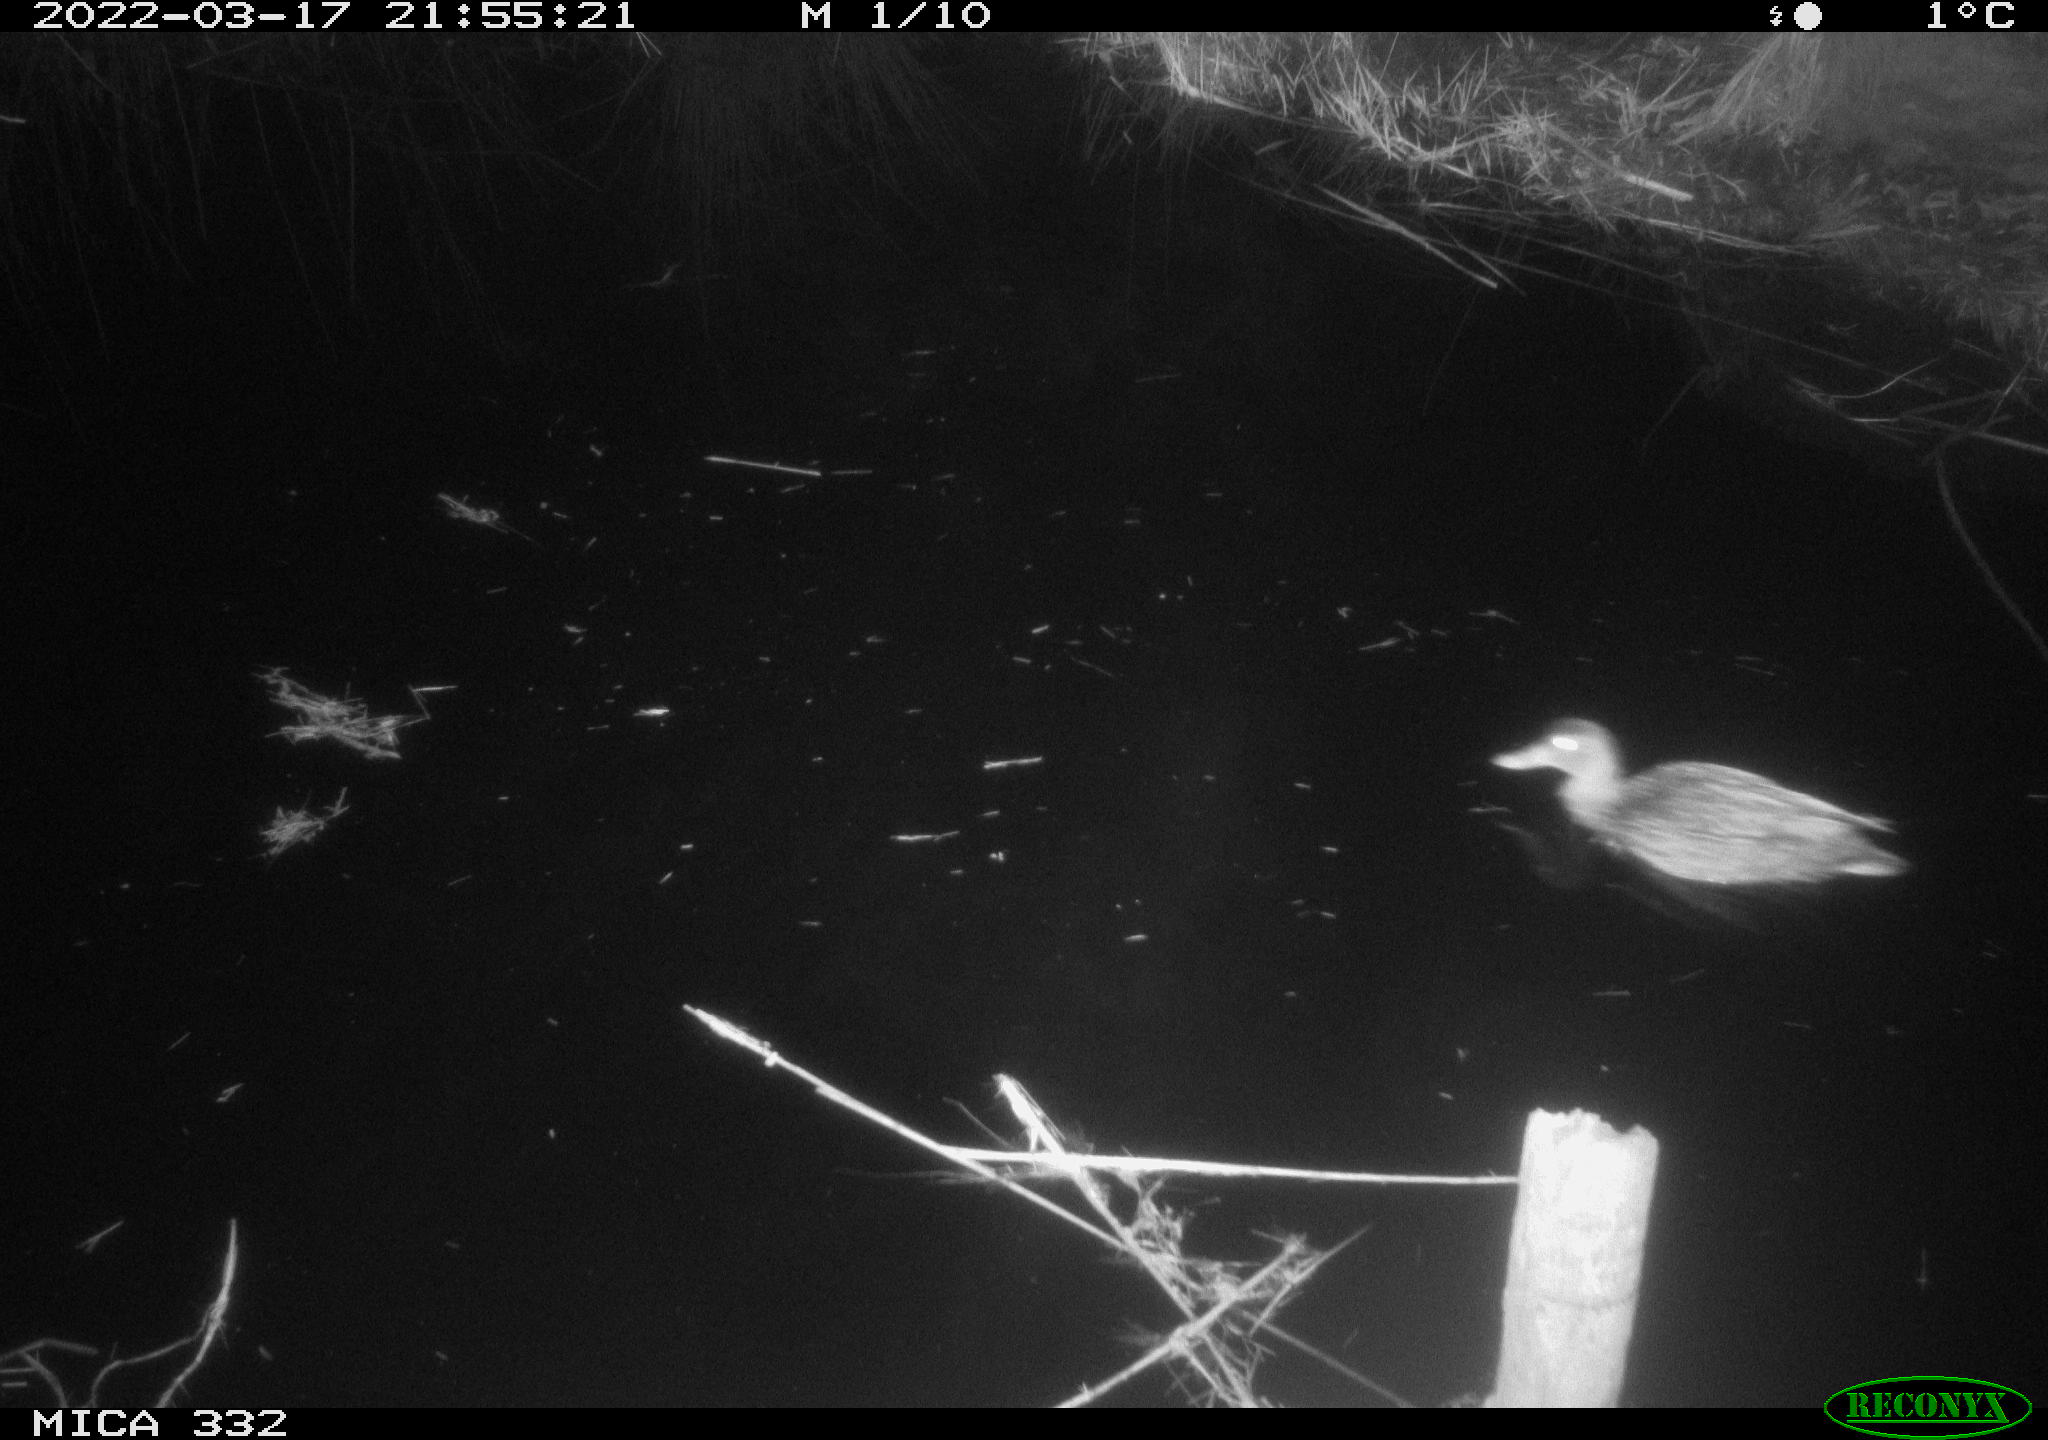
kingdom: Animalia
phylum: Chordata
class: Aves
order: Anseriformes
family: Anatidae
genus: Anas
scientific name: Anas platyrhynchos
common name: Mallard
